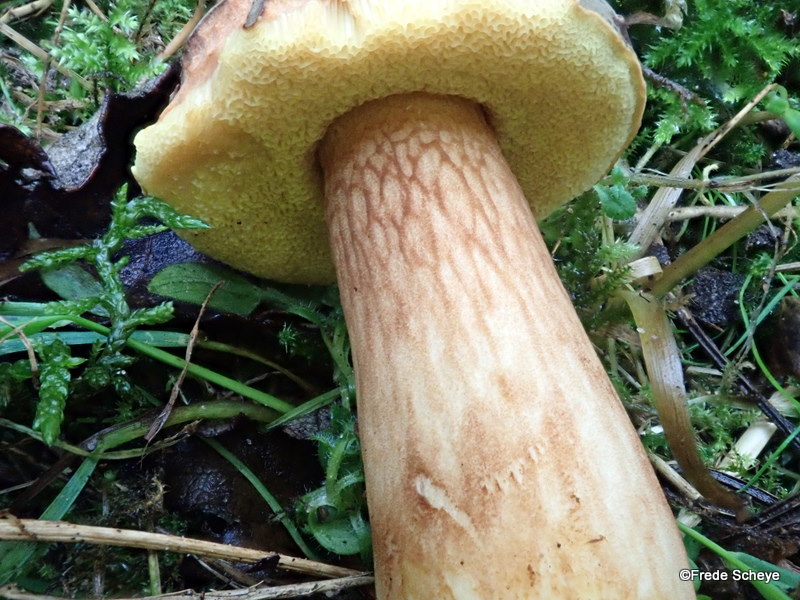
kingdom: Fungi
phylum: Basidiomycota
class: Agaricomycetes
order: Boletales
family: Boletaceae
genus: Xerocomus
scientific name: Xerocomus ferrugineus
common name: vaskeskinds-rørhat
